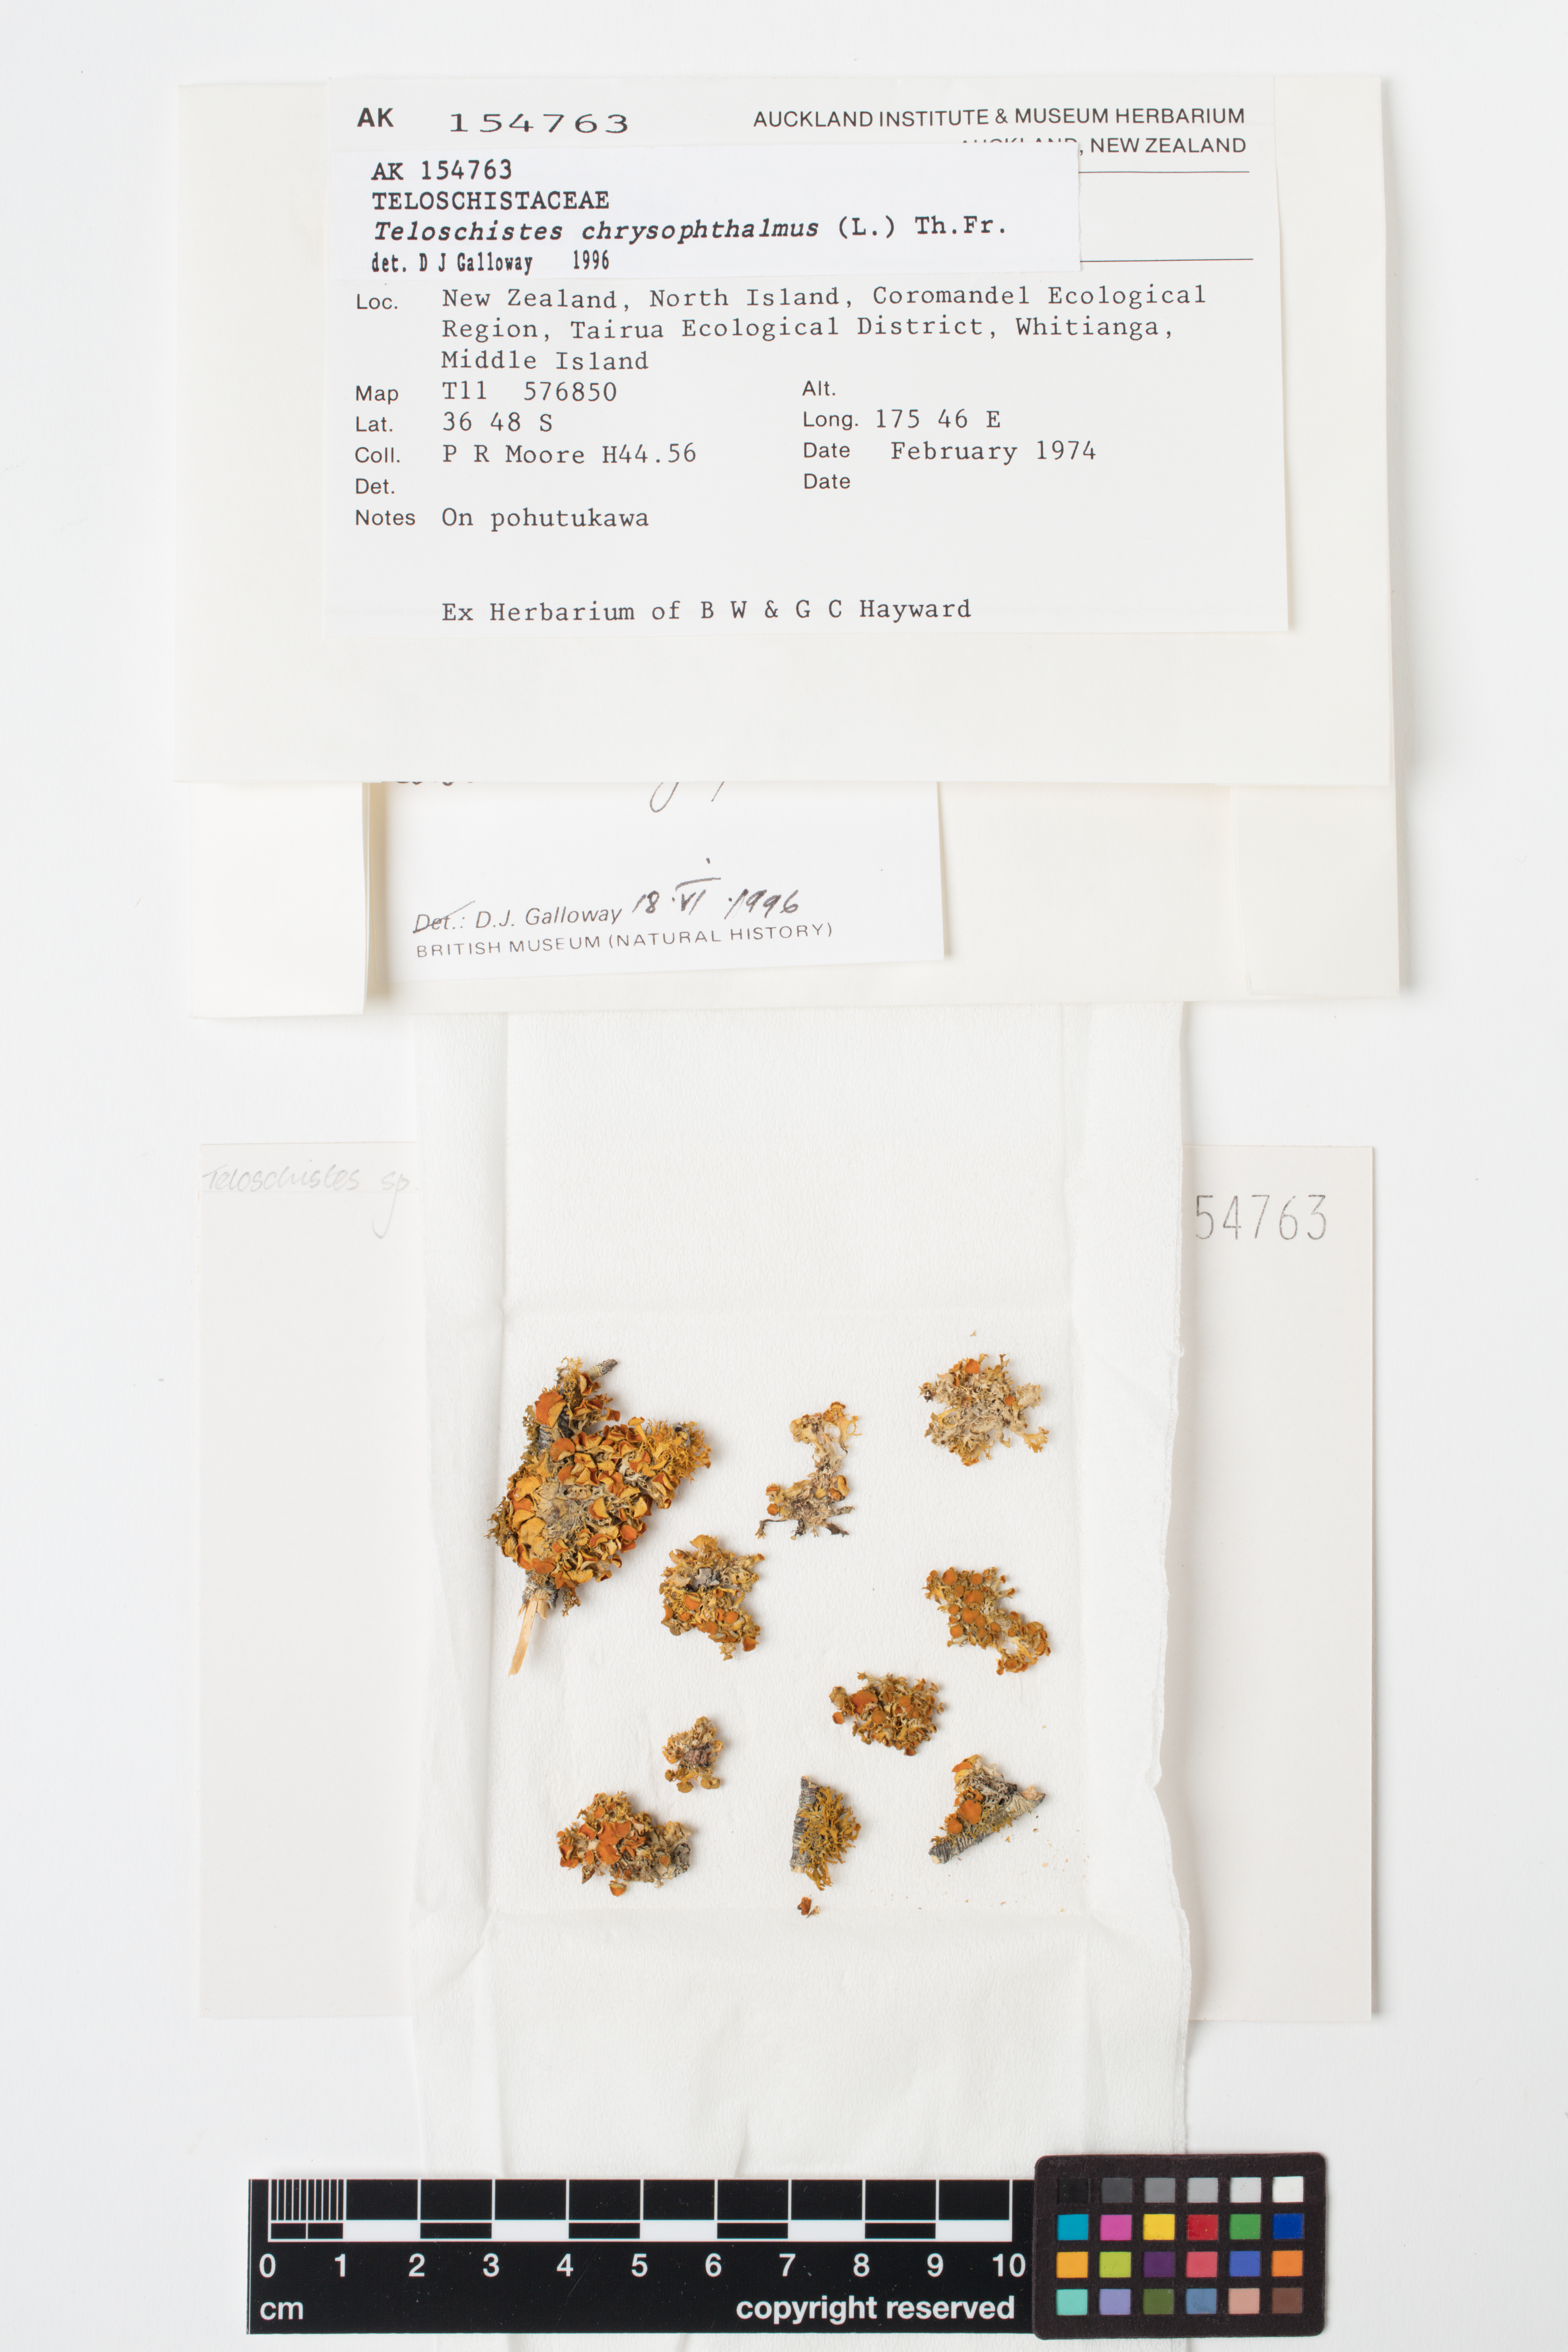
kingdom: Fungi
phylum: Ascomycota
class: Lecanoromycetes
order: Teloschistales
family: Teloschistaceae
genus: Niorma
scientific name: Niorma chrysophthalma
